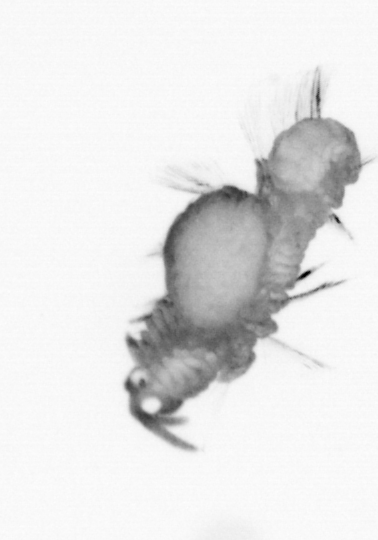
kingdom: Animalia
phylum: Annelida
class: Polychaeta
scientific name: Polychaeta
